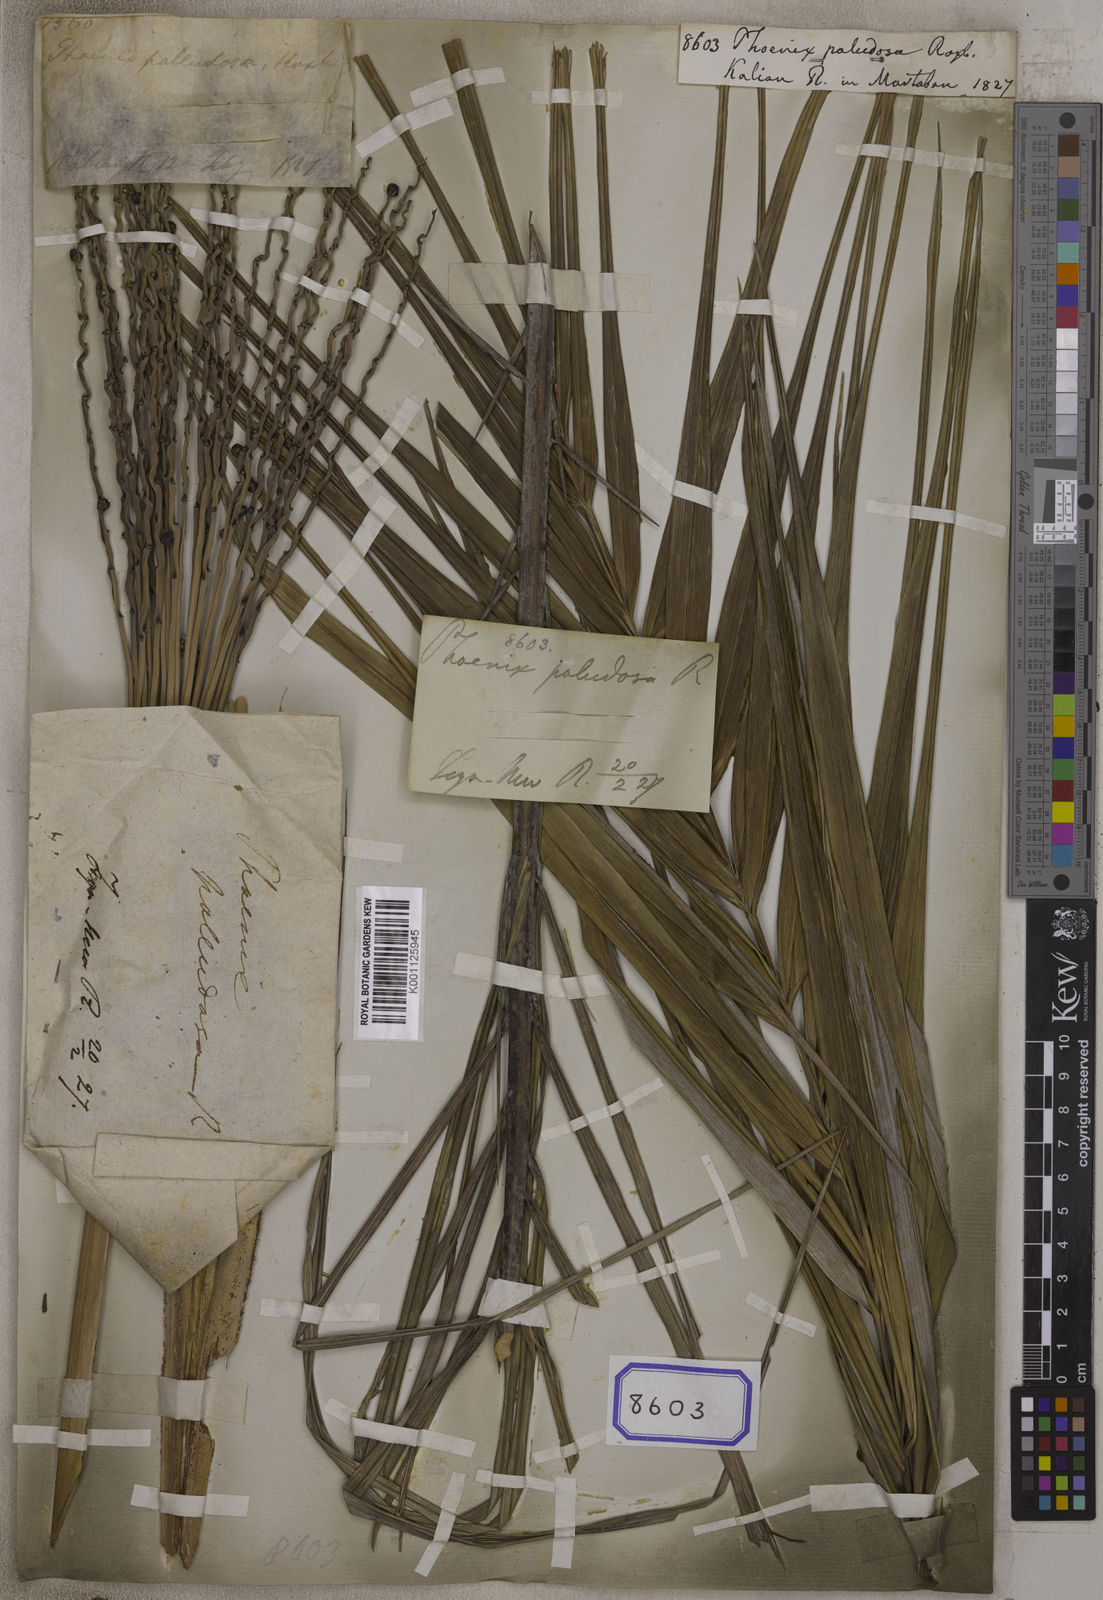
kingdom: Plantae
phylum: Tracheophyta
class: Liliopsida
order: Arecales
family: Arecaceae
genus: Phoenix
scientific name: Phoenix paludosa
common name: Mangrove date palm
